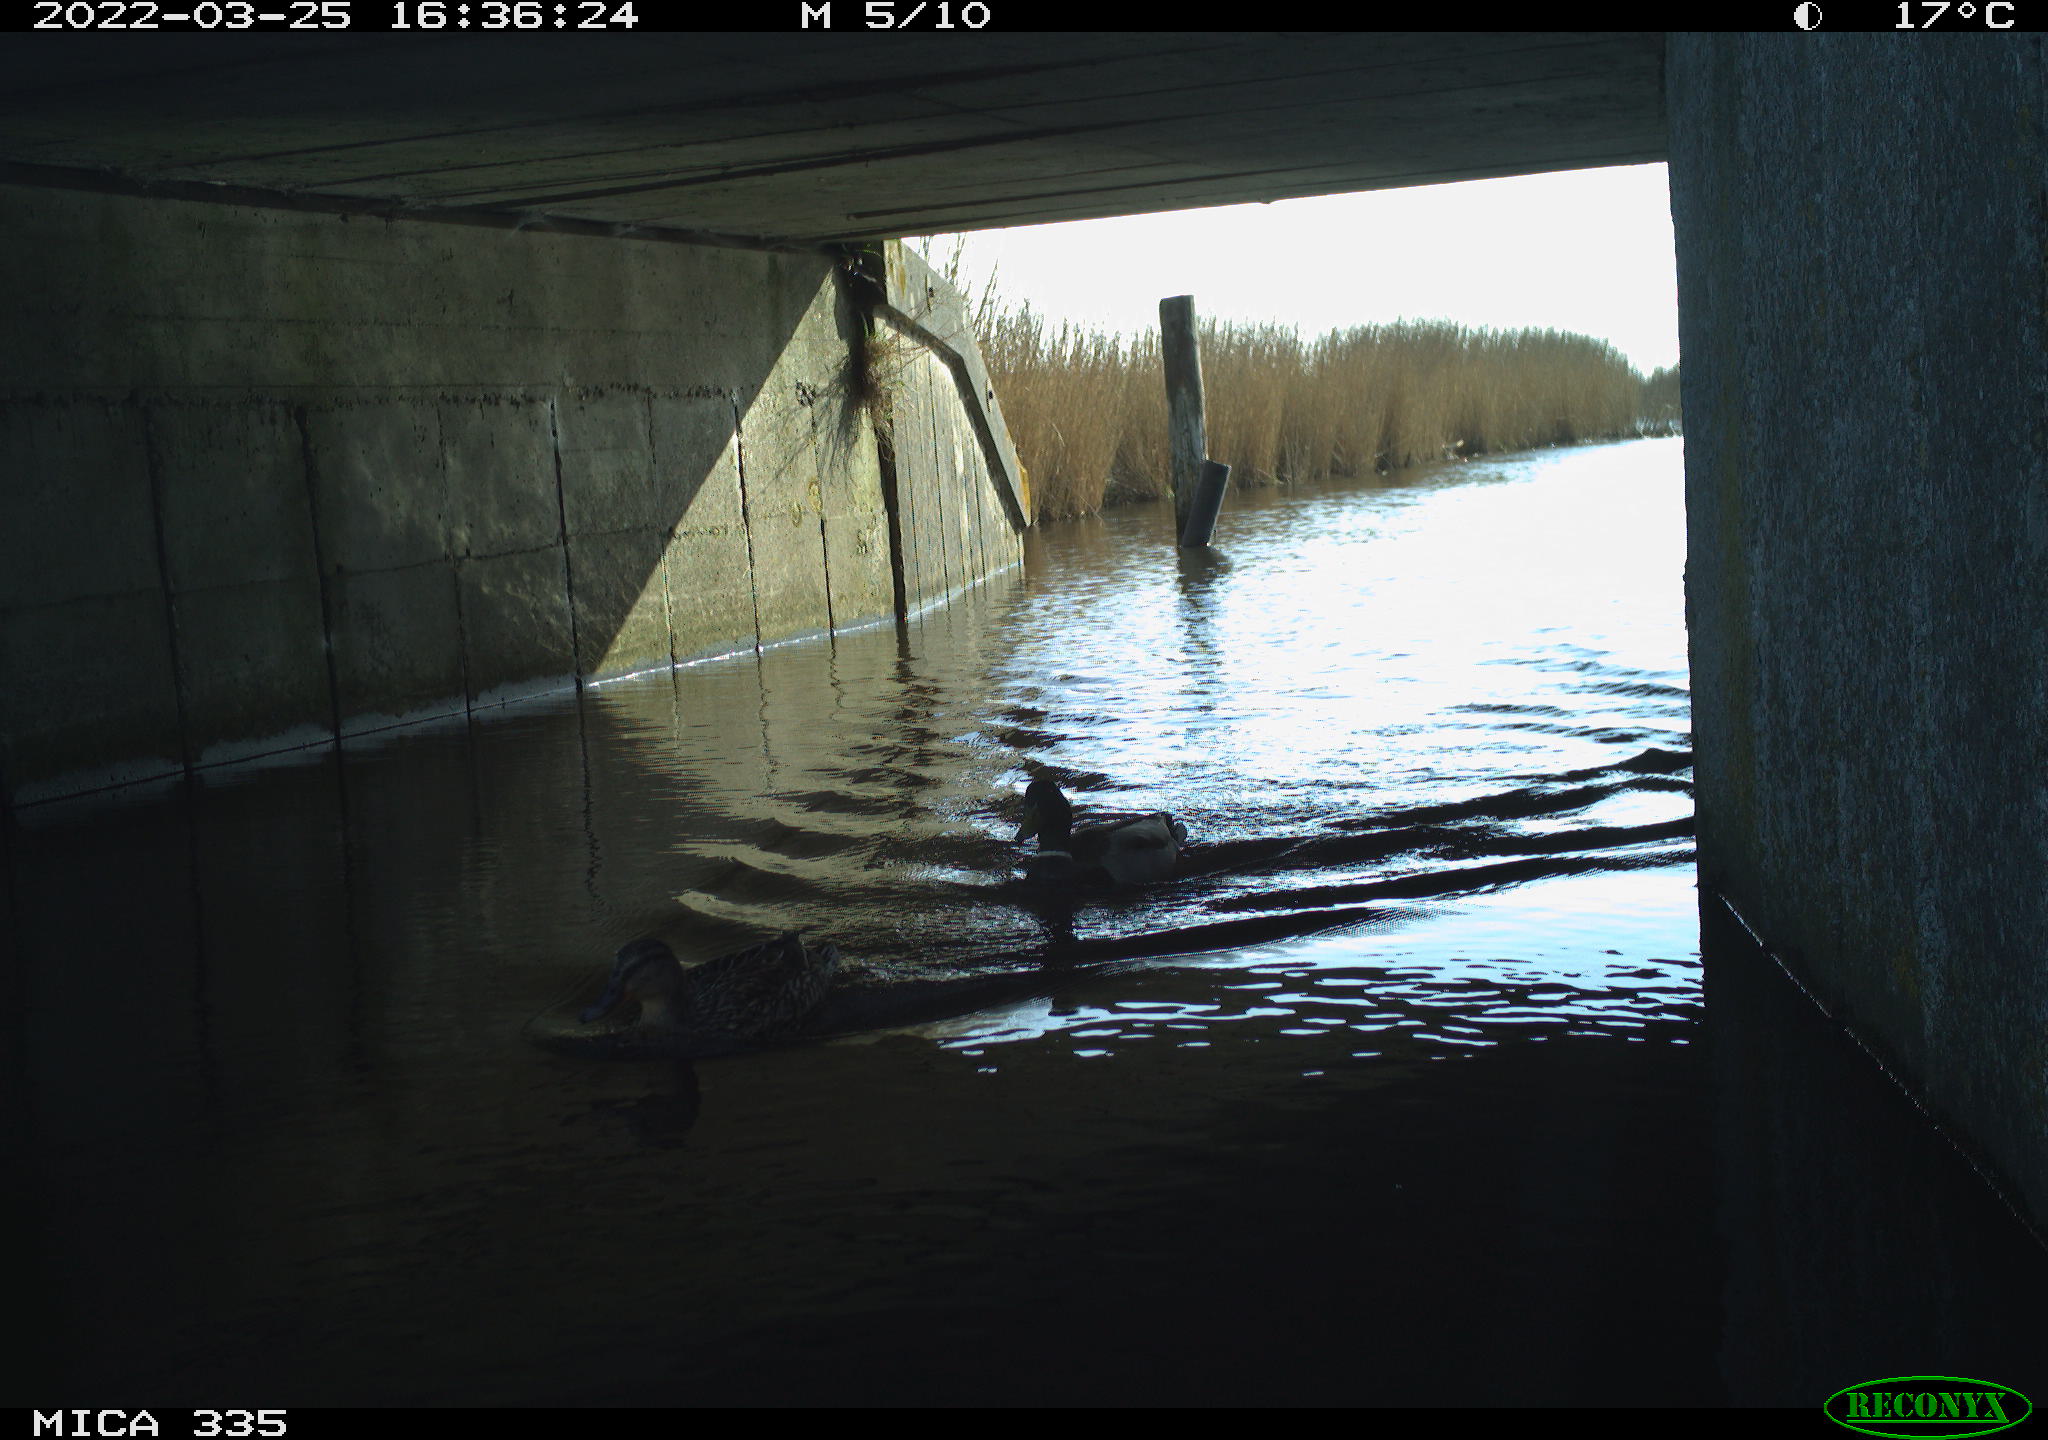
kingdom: Animalia
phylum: Chordata
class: Aves
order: Anseriformes
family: Anatidae
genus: Anas
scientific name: Anas platyrhynchos
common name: Mallard
